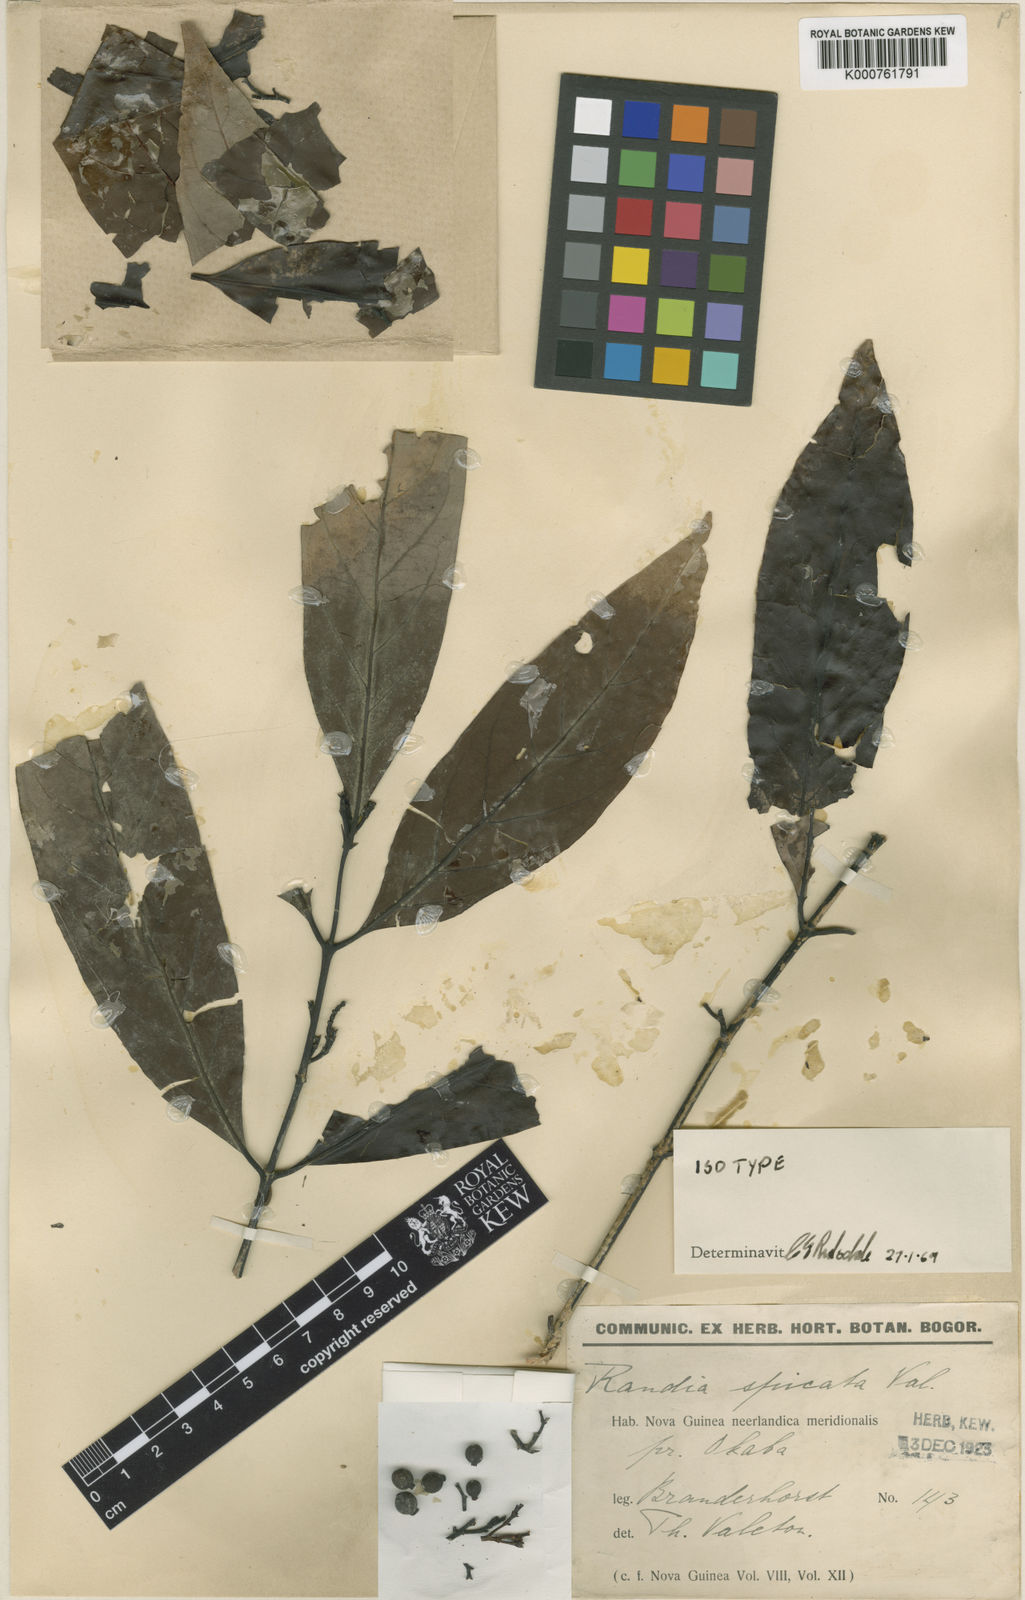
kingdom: Plantae
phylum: Tracheophyta
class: Magnoliopsida
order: Gentianales
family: Rubiaceae
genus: Aidia
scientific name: Aidia racemosa
